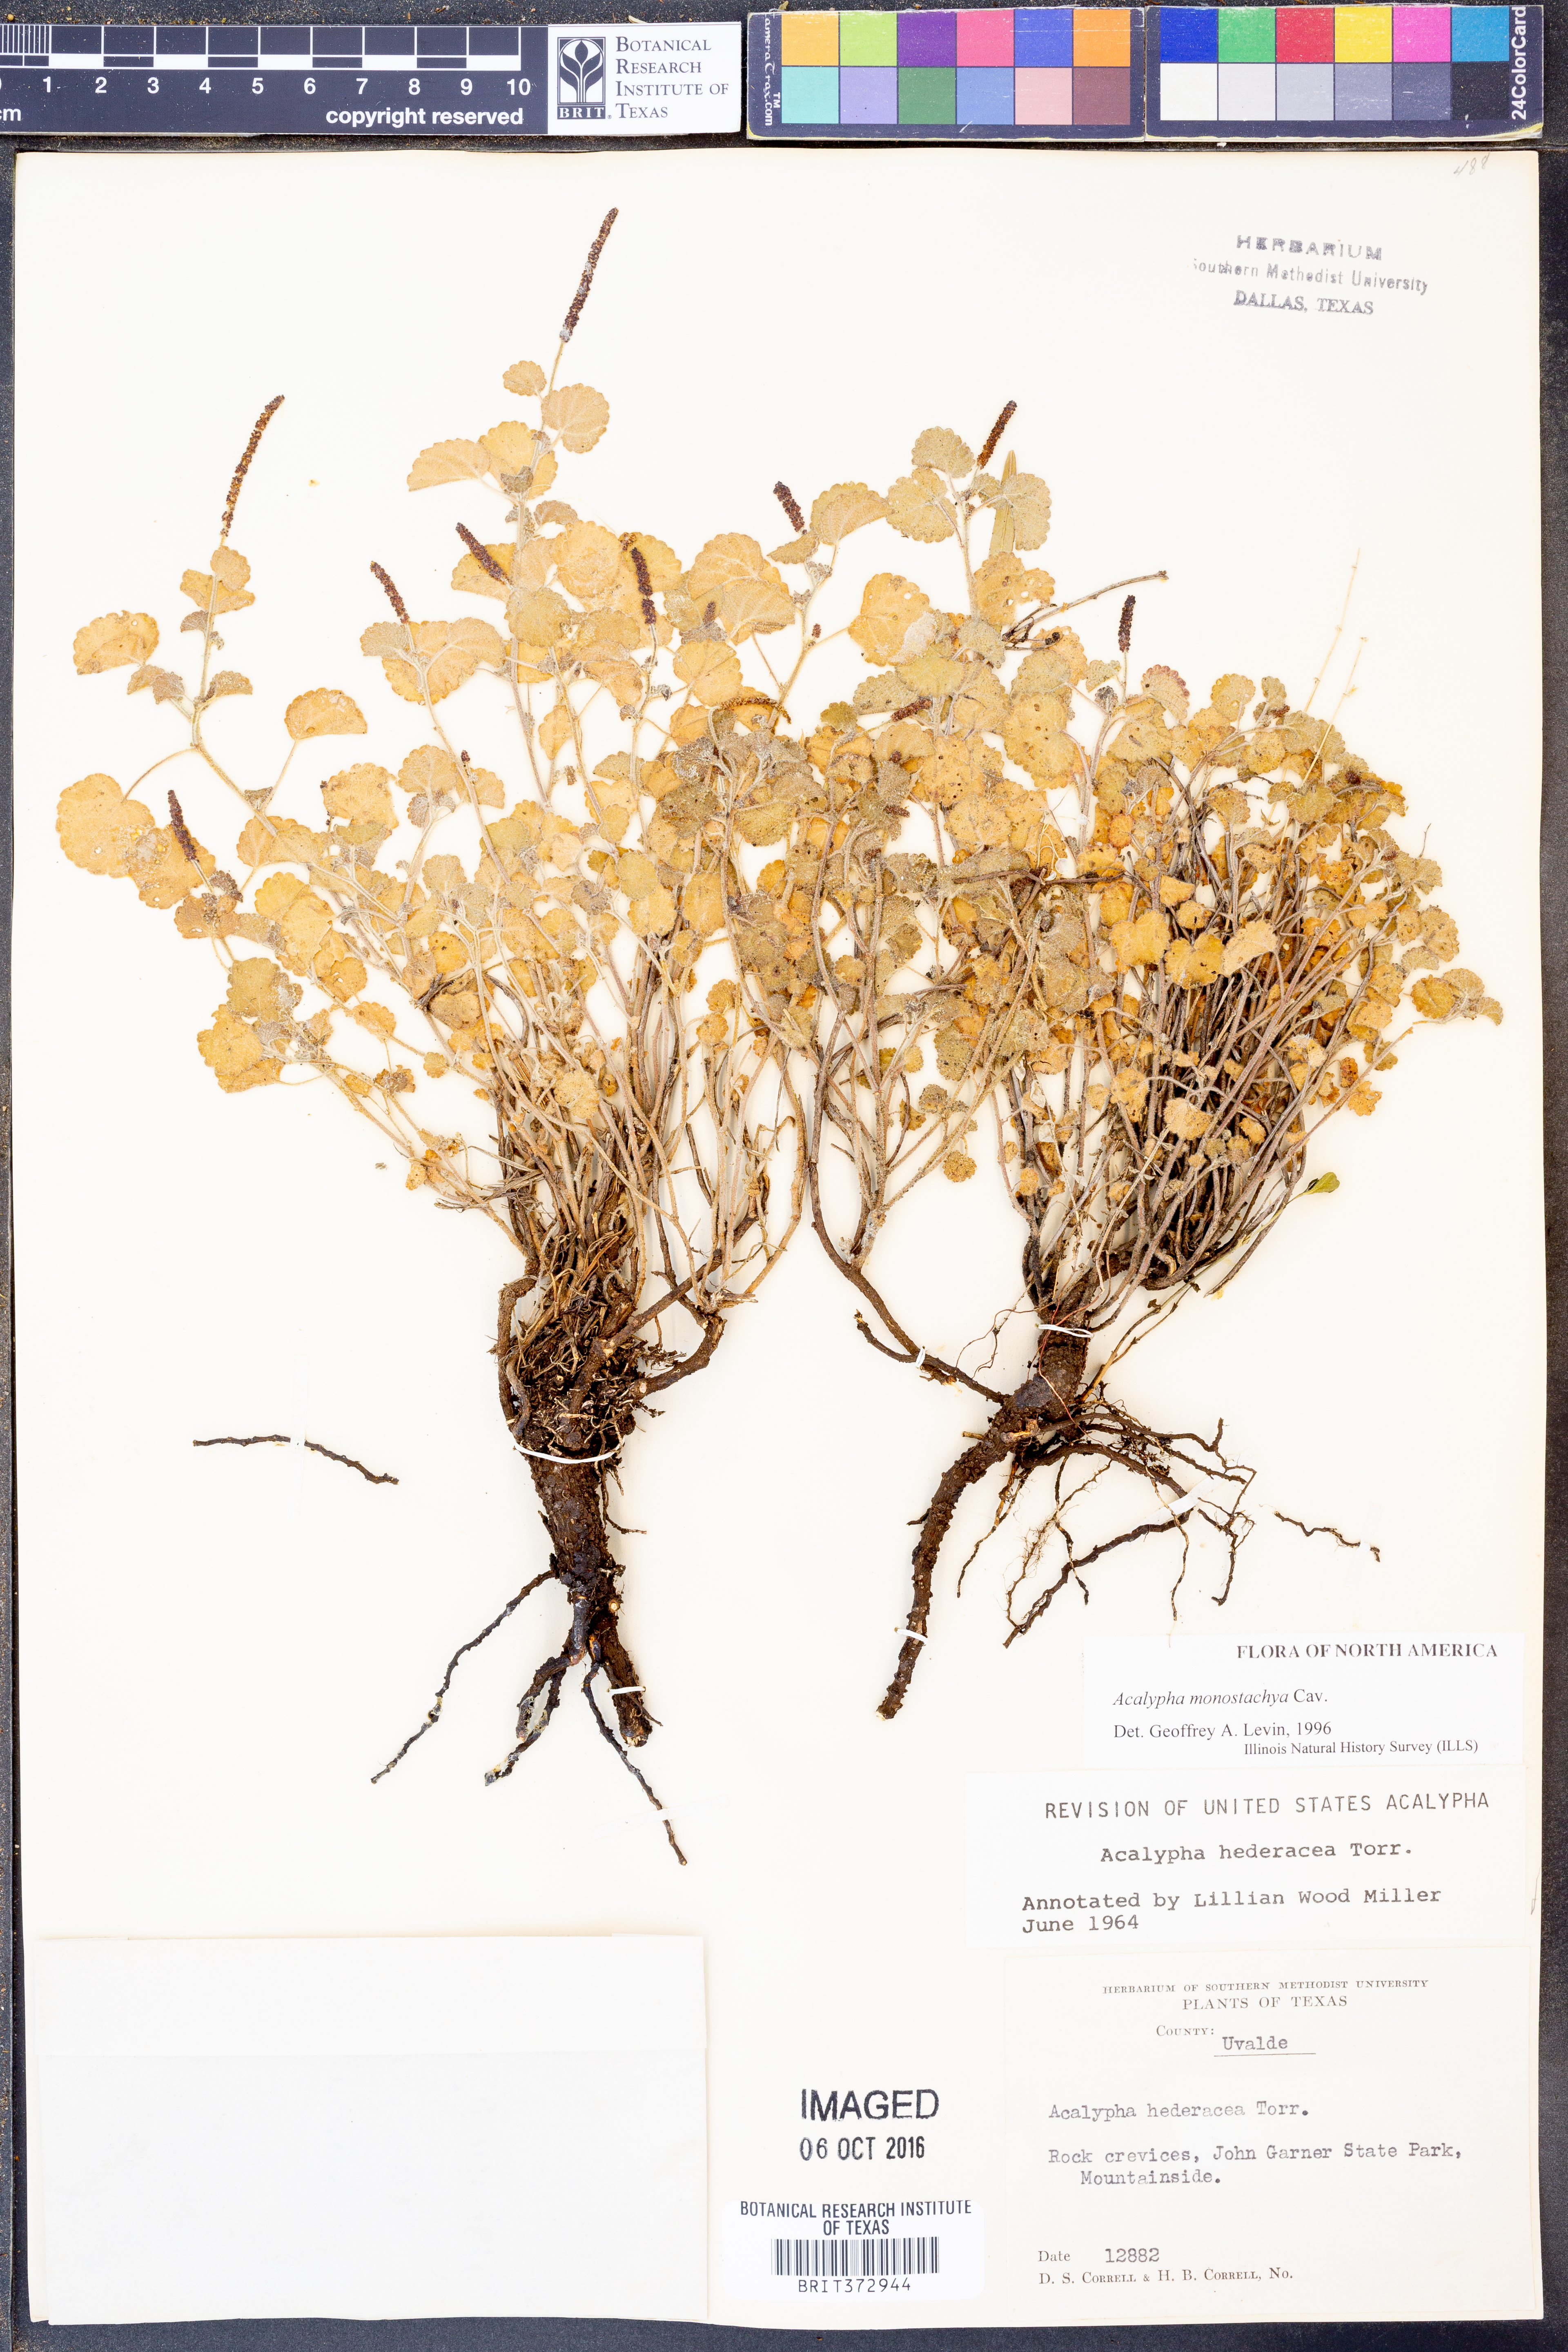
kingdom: Plantae
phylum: Tracheophyta
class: Magnoliopsida
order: Malpighiales
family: Euphorbiaceae
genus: Acalypha
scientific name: Acalypha monostachya
